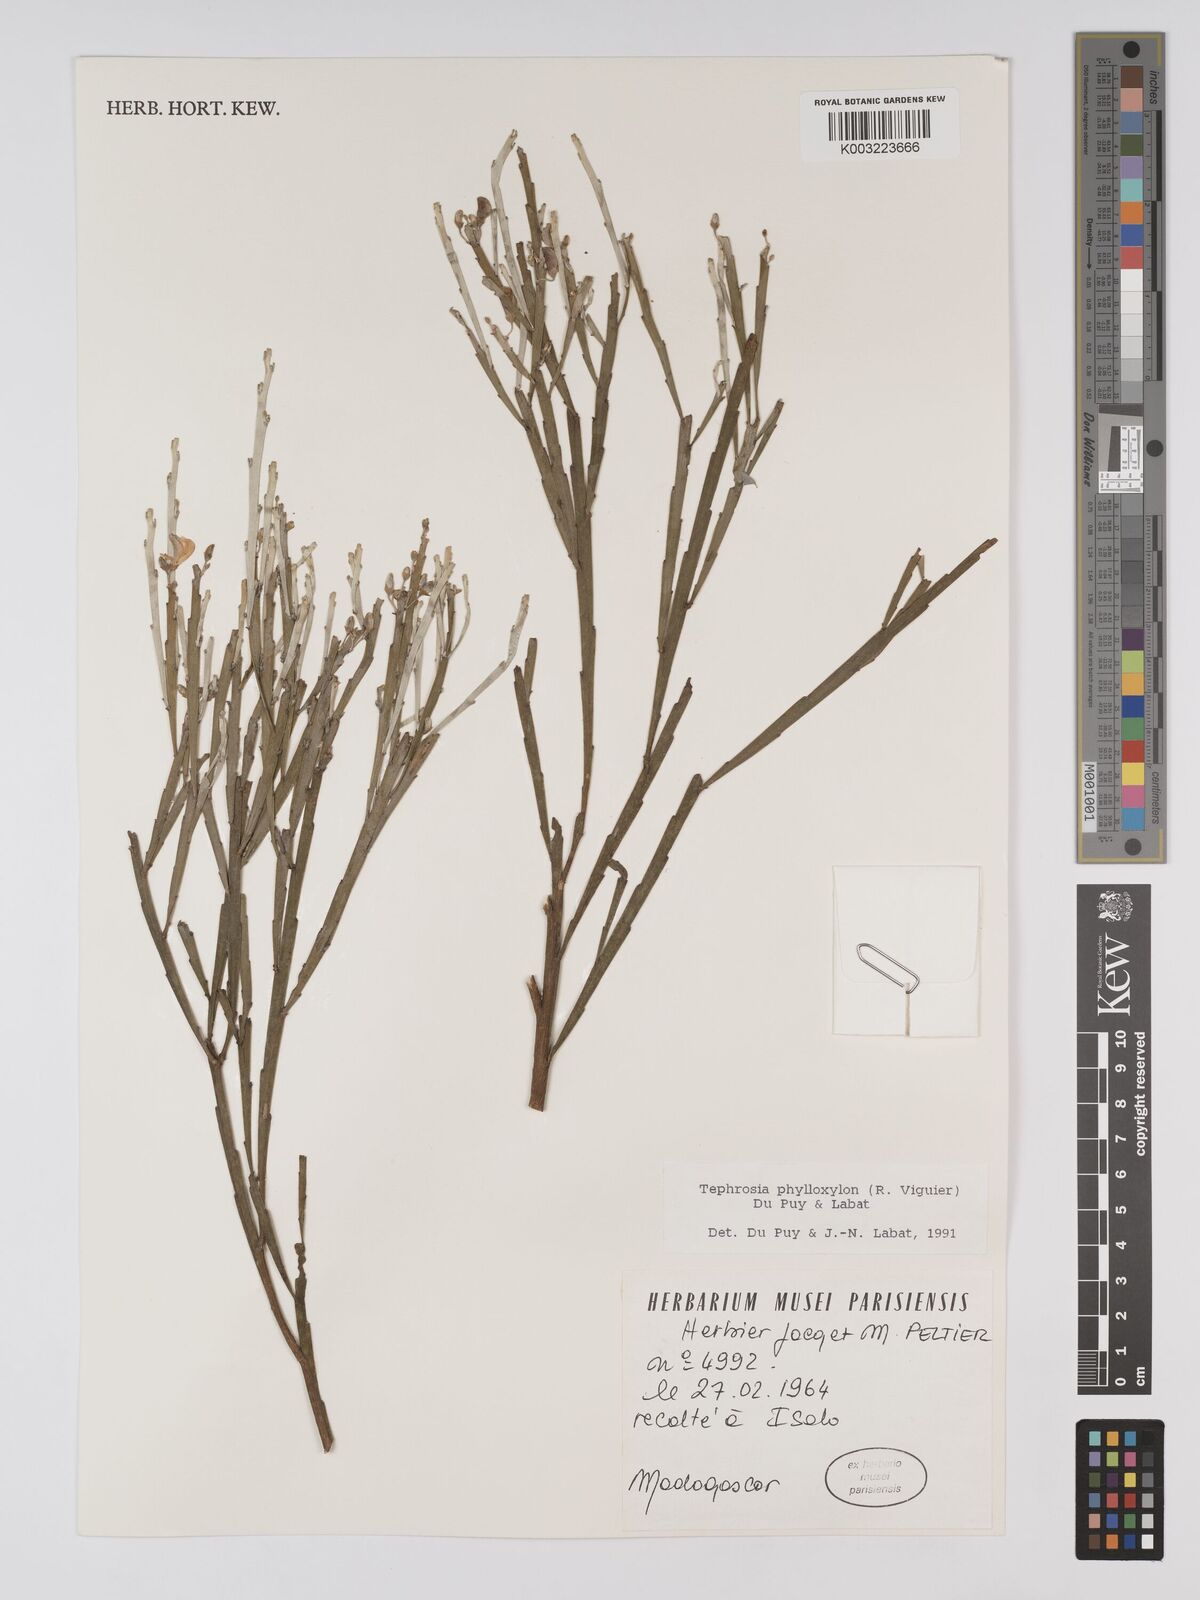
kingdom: Plantae
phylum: Tracheophyta
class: Magnoliopsida
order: Fabales
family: Fabaceae
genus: Tephrosia
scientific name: Tephrosia phylloxylon
